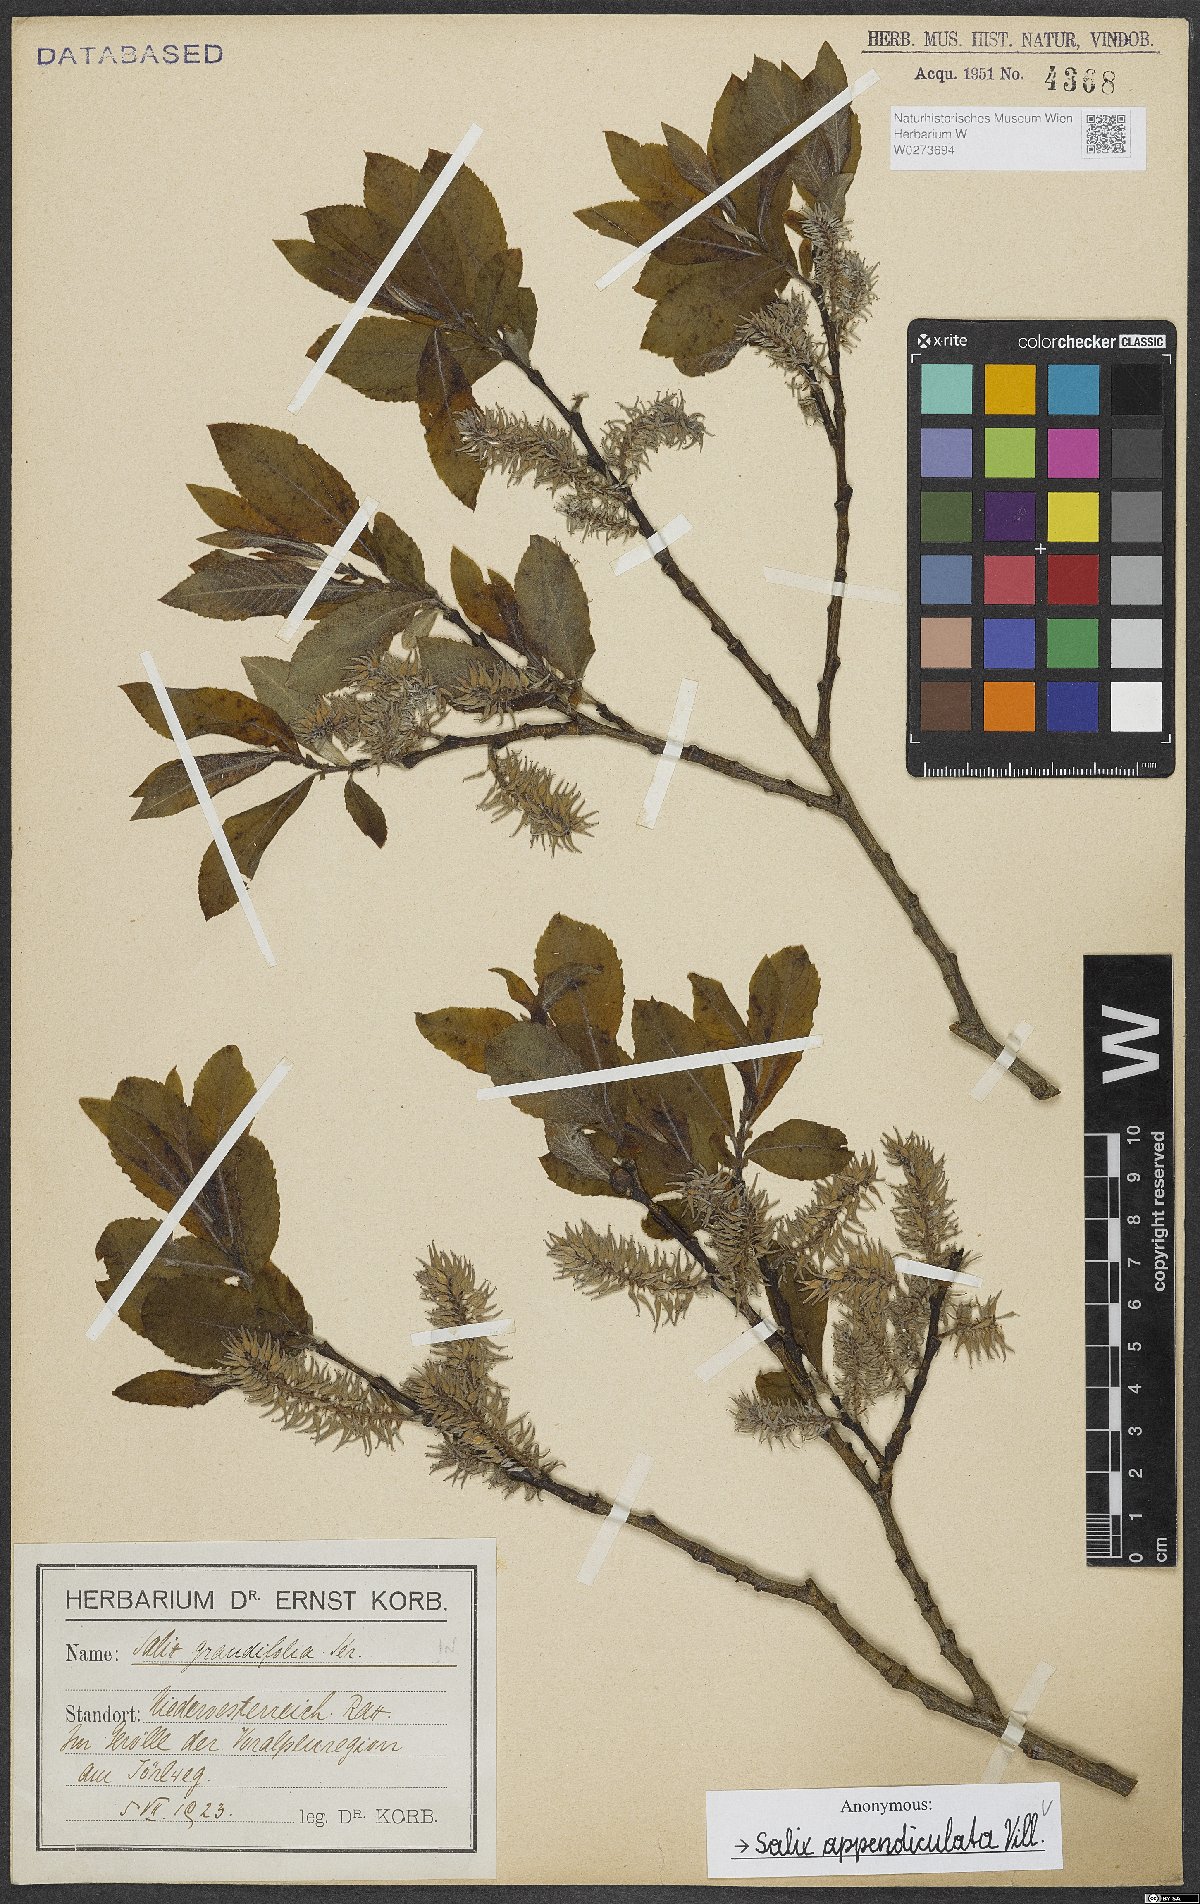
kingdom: Plantae
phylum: Tracheophyta
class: Magnoliopsida
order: Malpighiales
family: Salicaceae
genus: Salix
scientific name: Salix appendiculata
